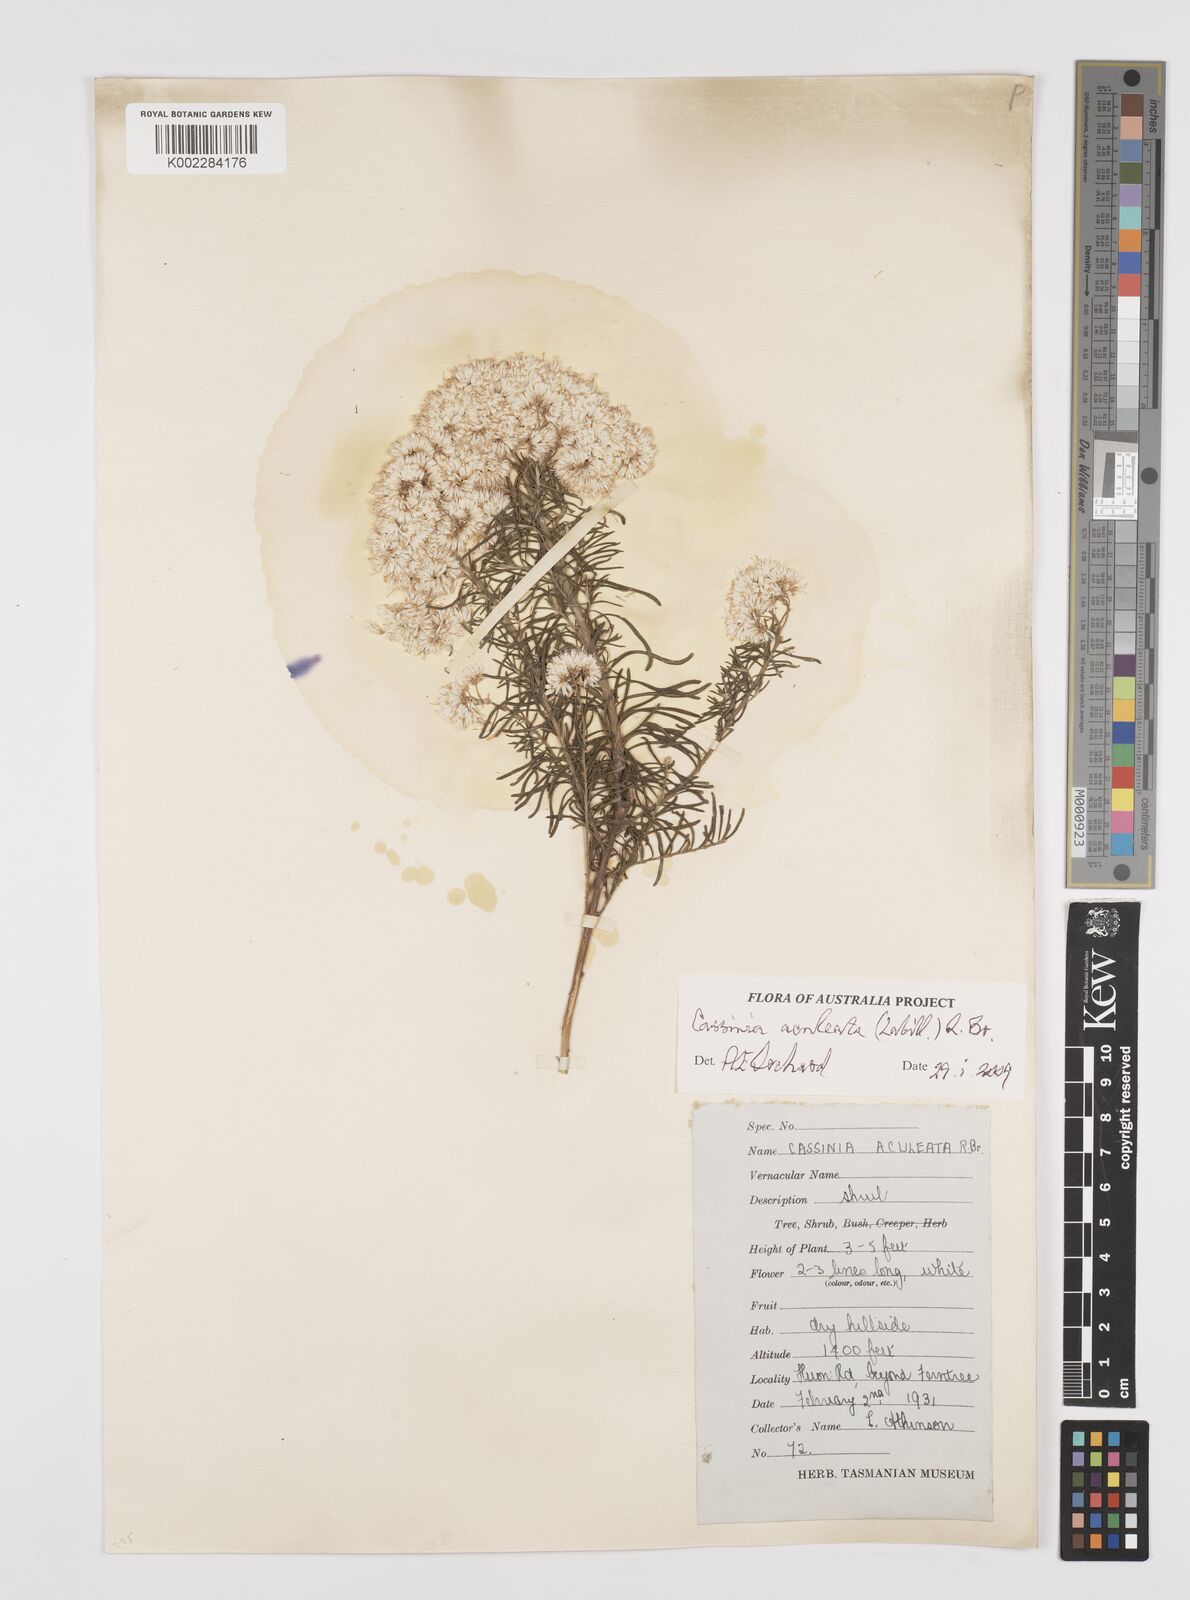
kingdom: Plantae
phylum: Tracheophyta
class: Magnoliopsida
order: Asterales
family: Asteraceae
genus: Cassinia
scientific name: Cassinia aculeata
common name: Australian tauhinu
